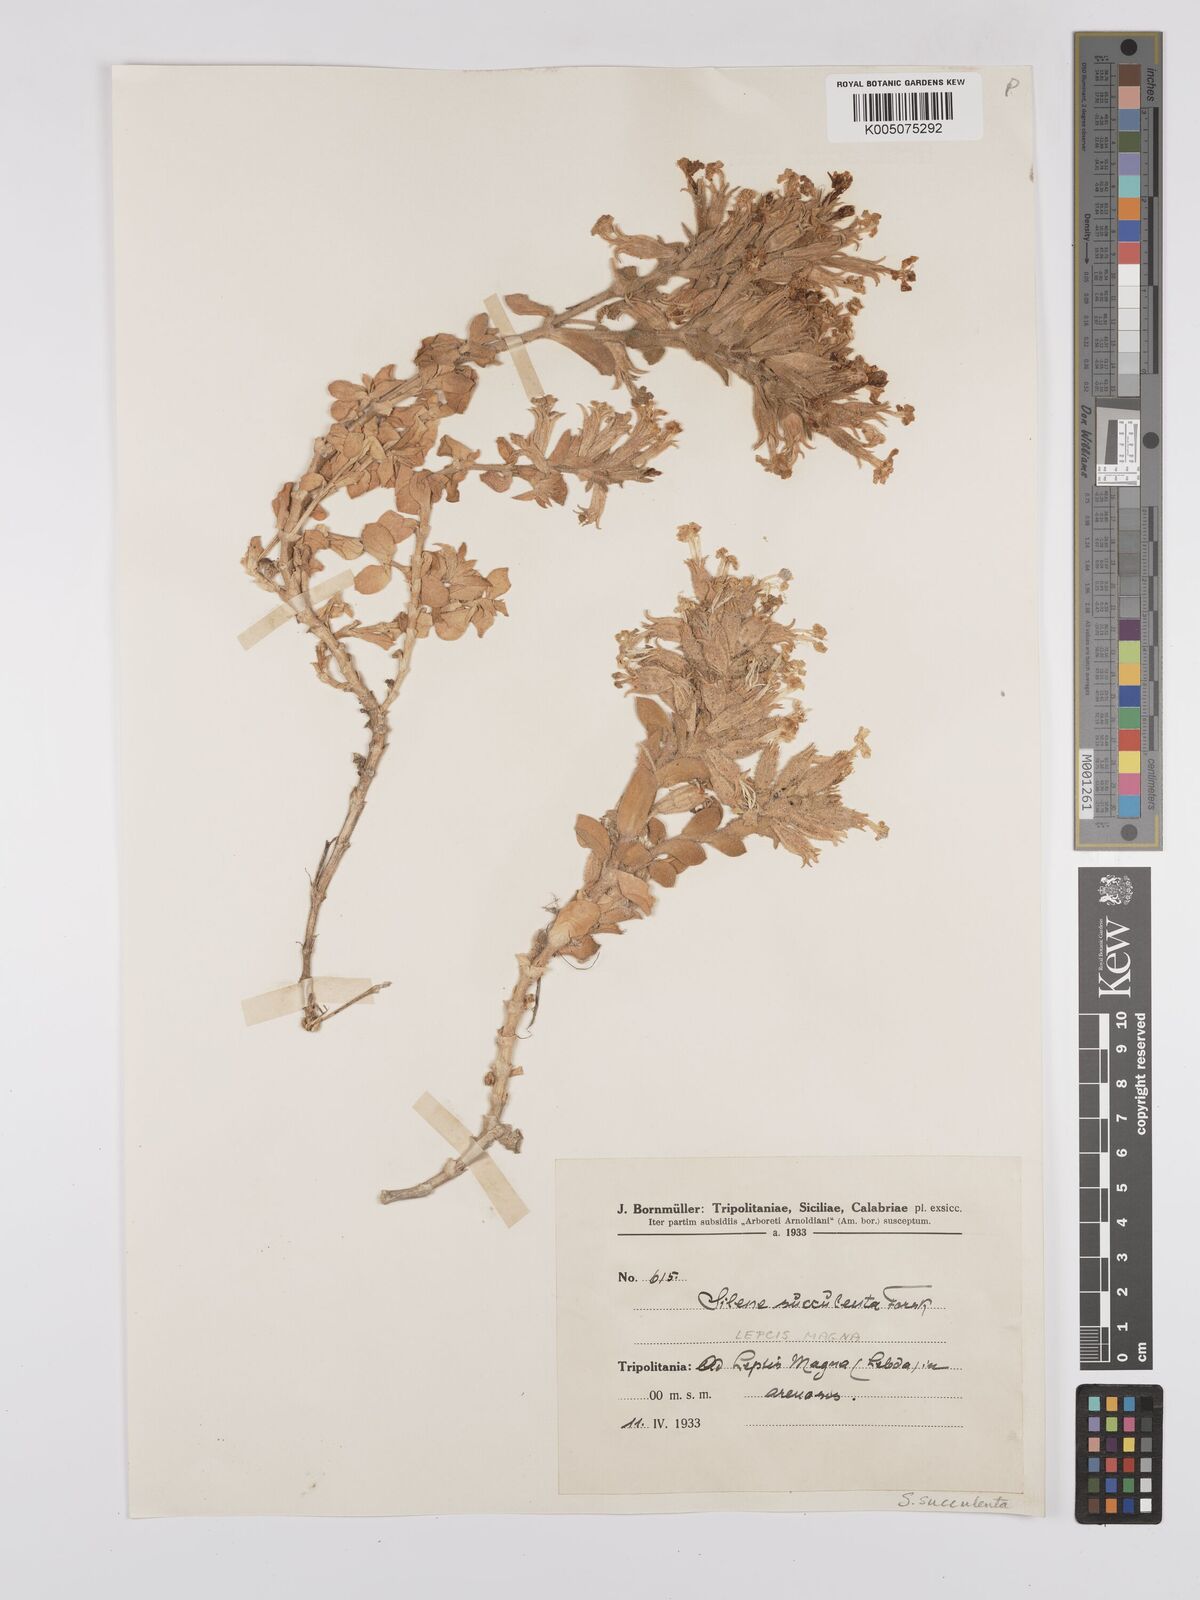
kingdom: Plantae
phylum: Tracheophyta
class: Magnoliopsida
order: Caryophyllales
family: Caryophyllaceae
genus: Silene
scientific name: Silene succulenta
